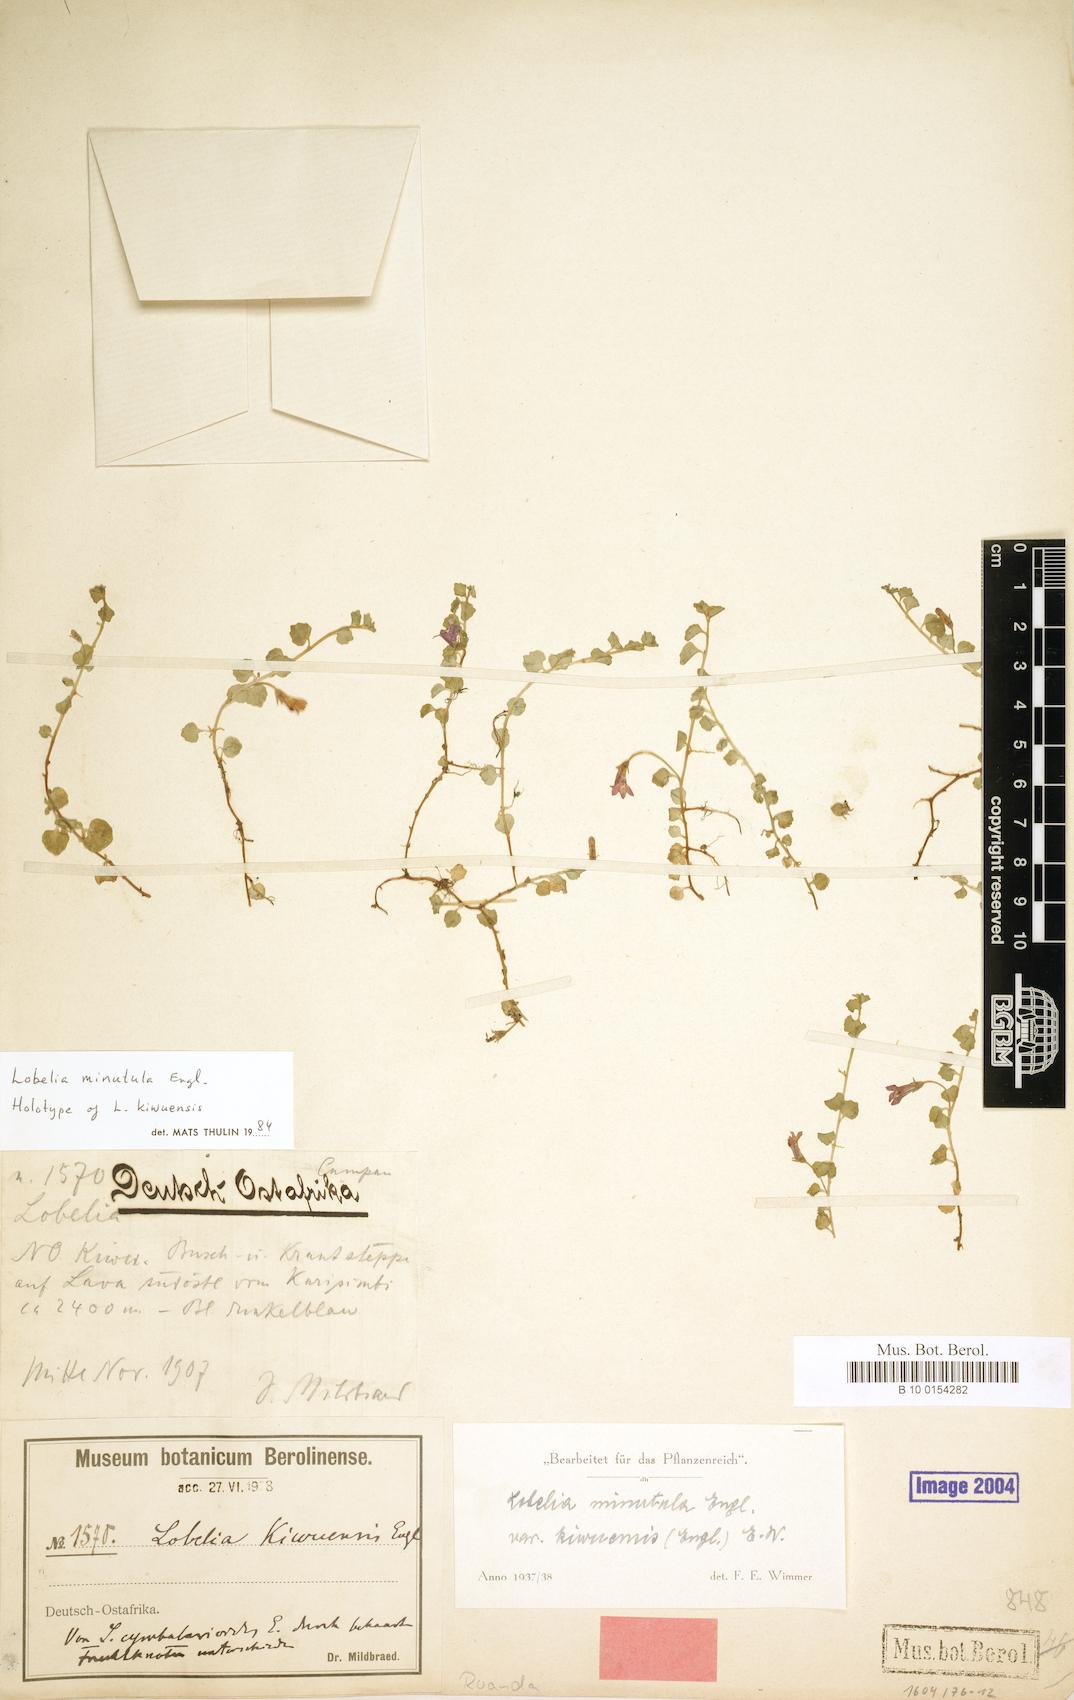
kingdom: Plantae
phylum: Tracheophyta
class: Magnoliopsida
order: Asterales
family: Campanulaceae
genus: Lobelia
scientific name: Lobelia minutula
